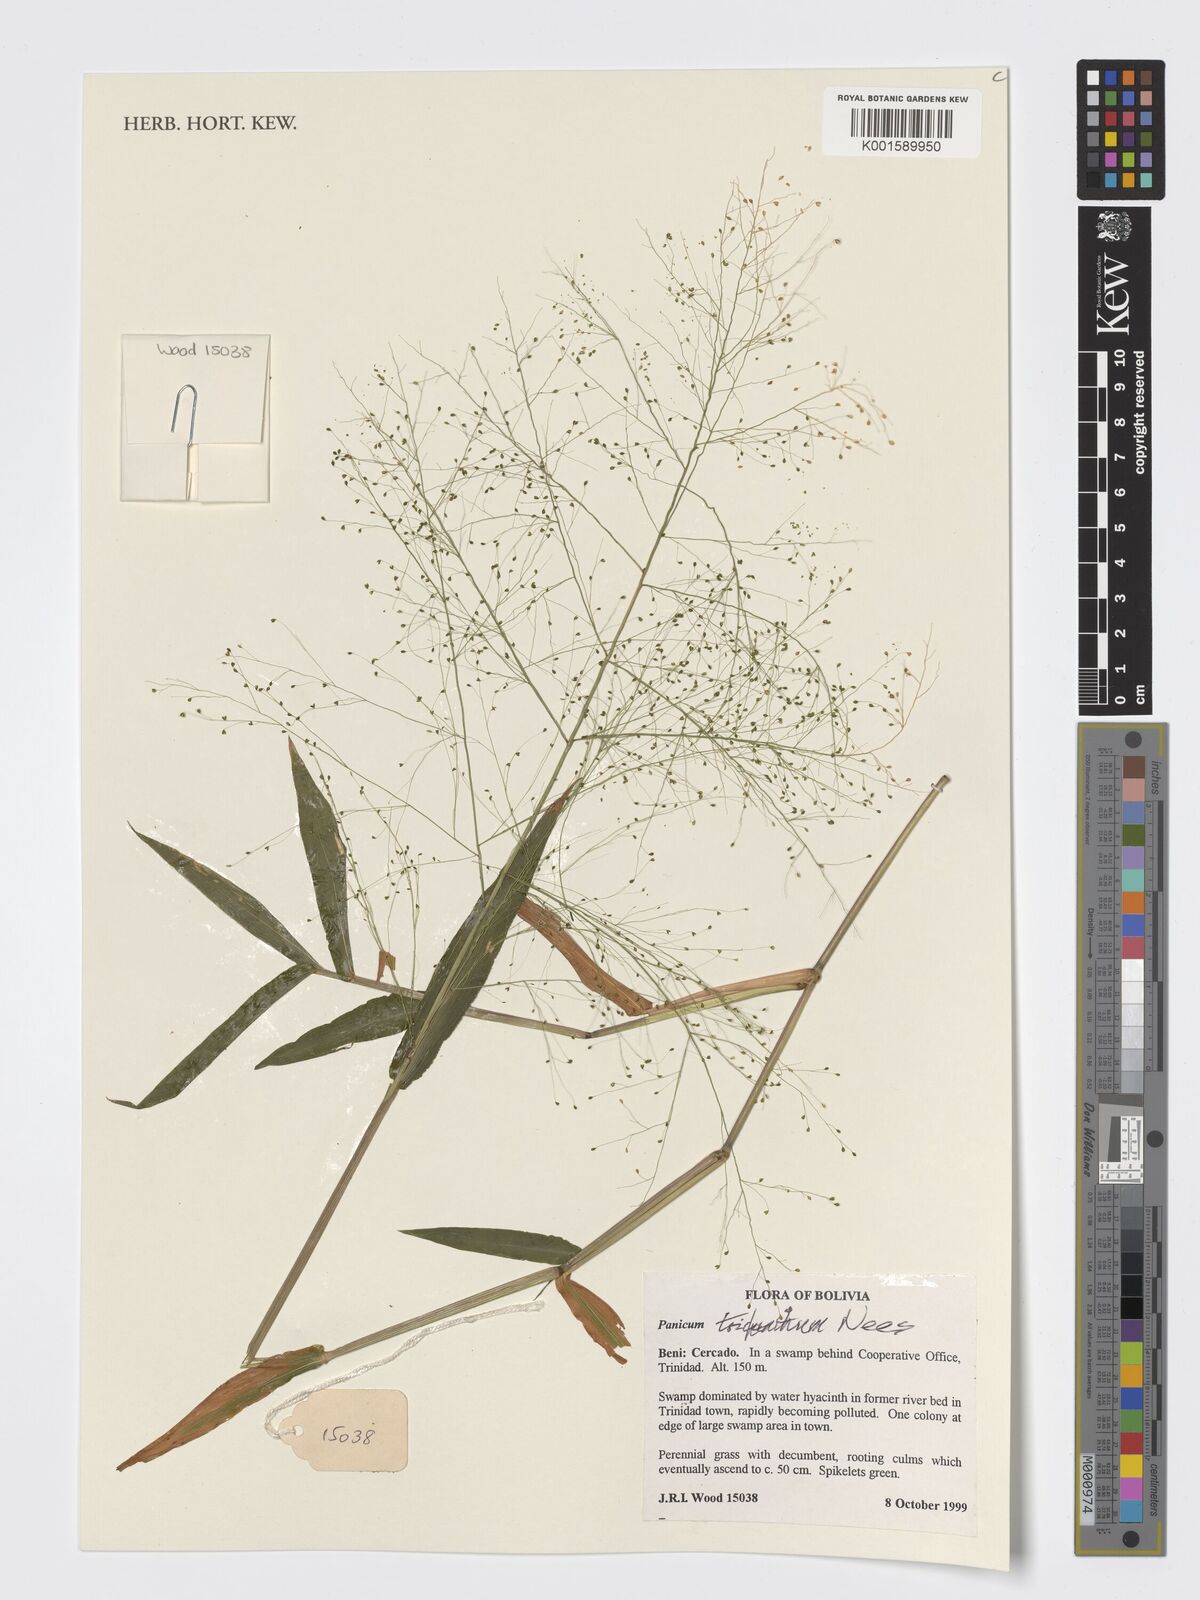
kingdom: Plantae
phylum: Tracheophyta
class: Liliopsida
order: Poales
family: Poaceae
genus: Panicum
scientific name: Panicum trichanthum
